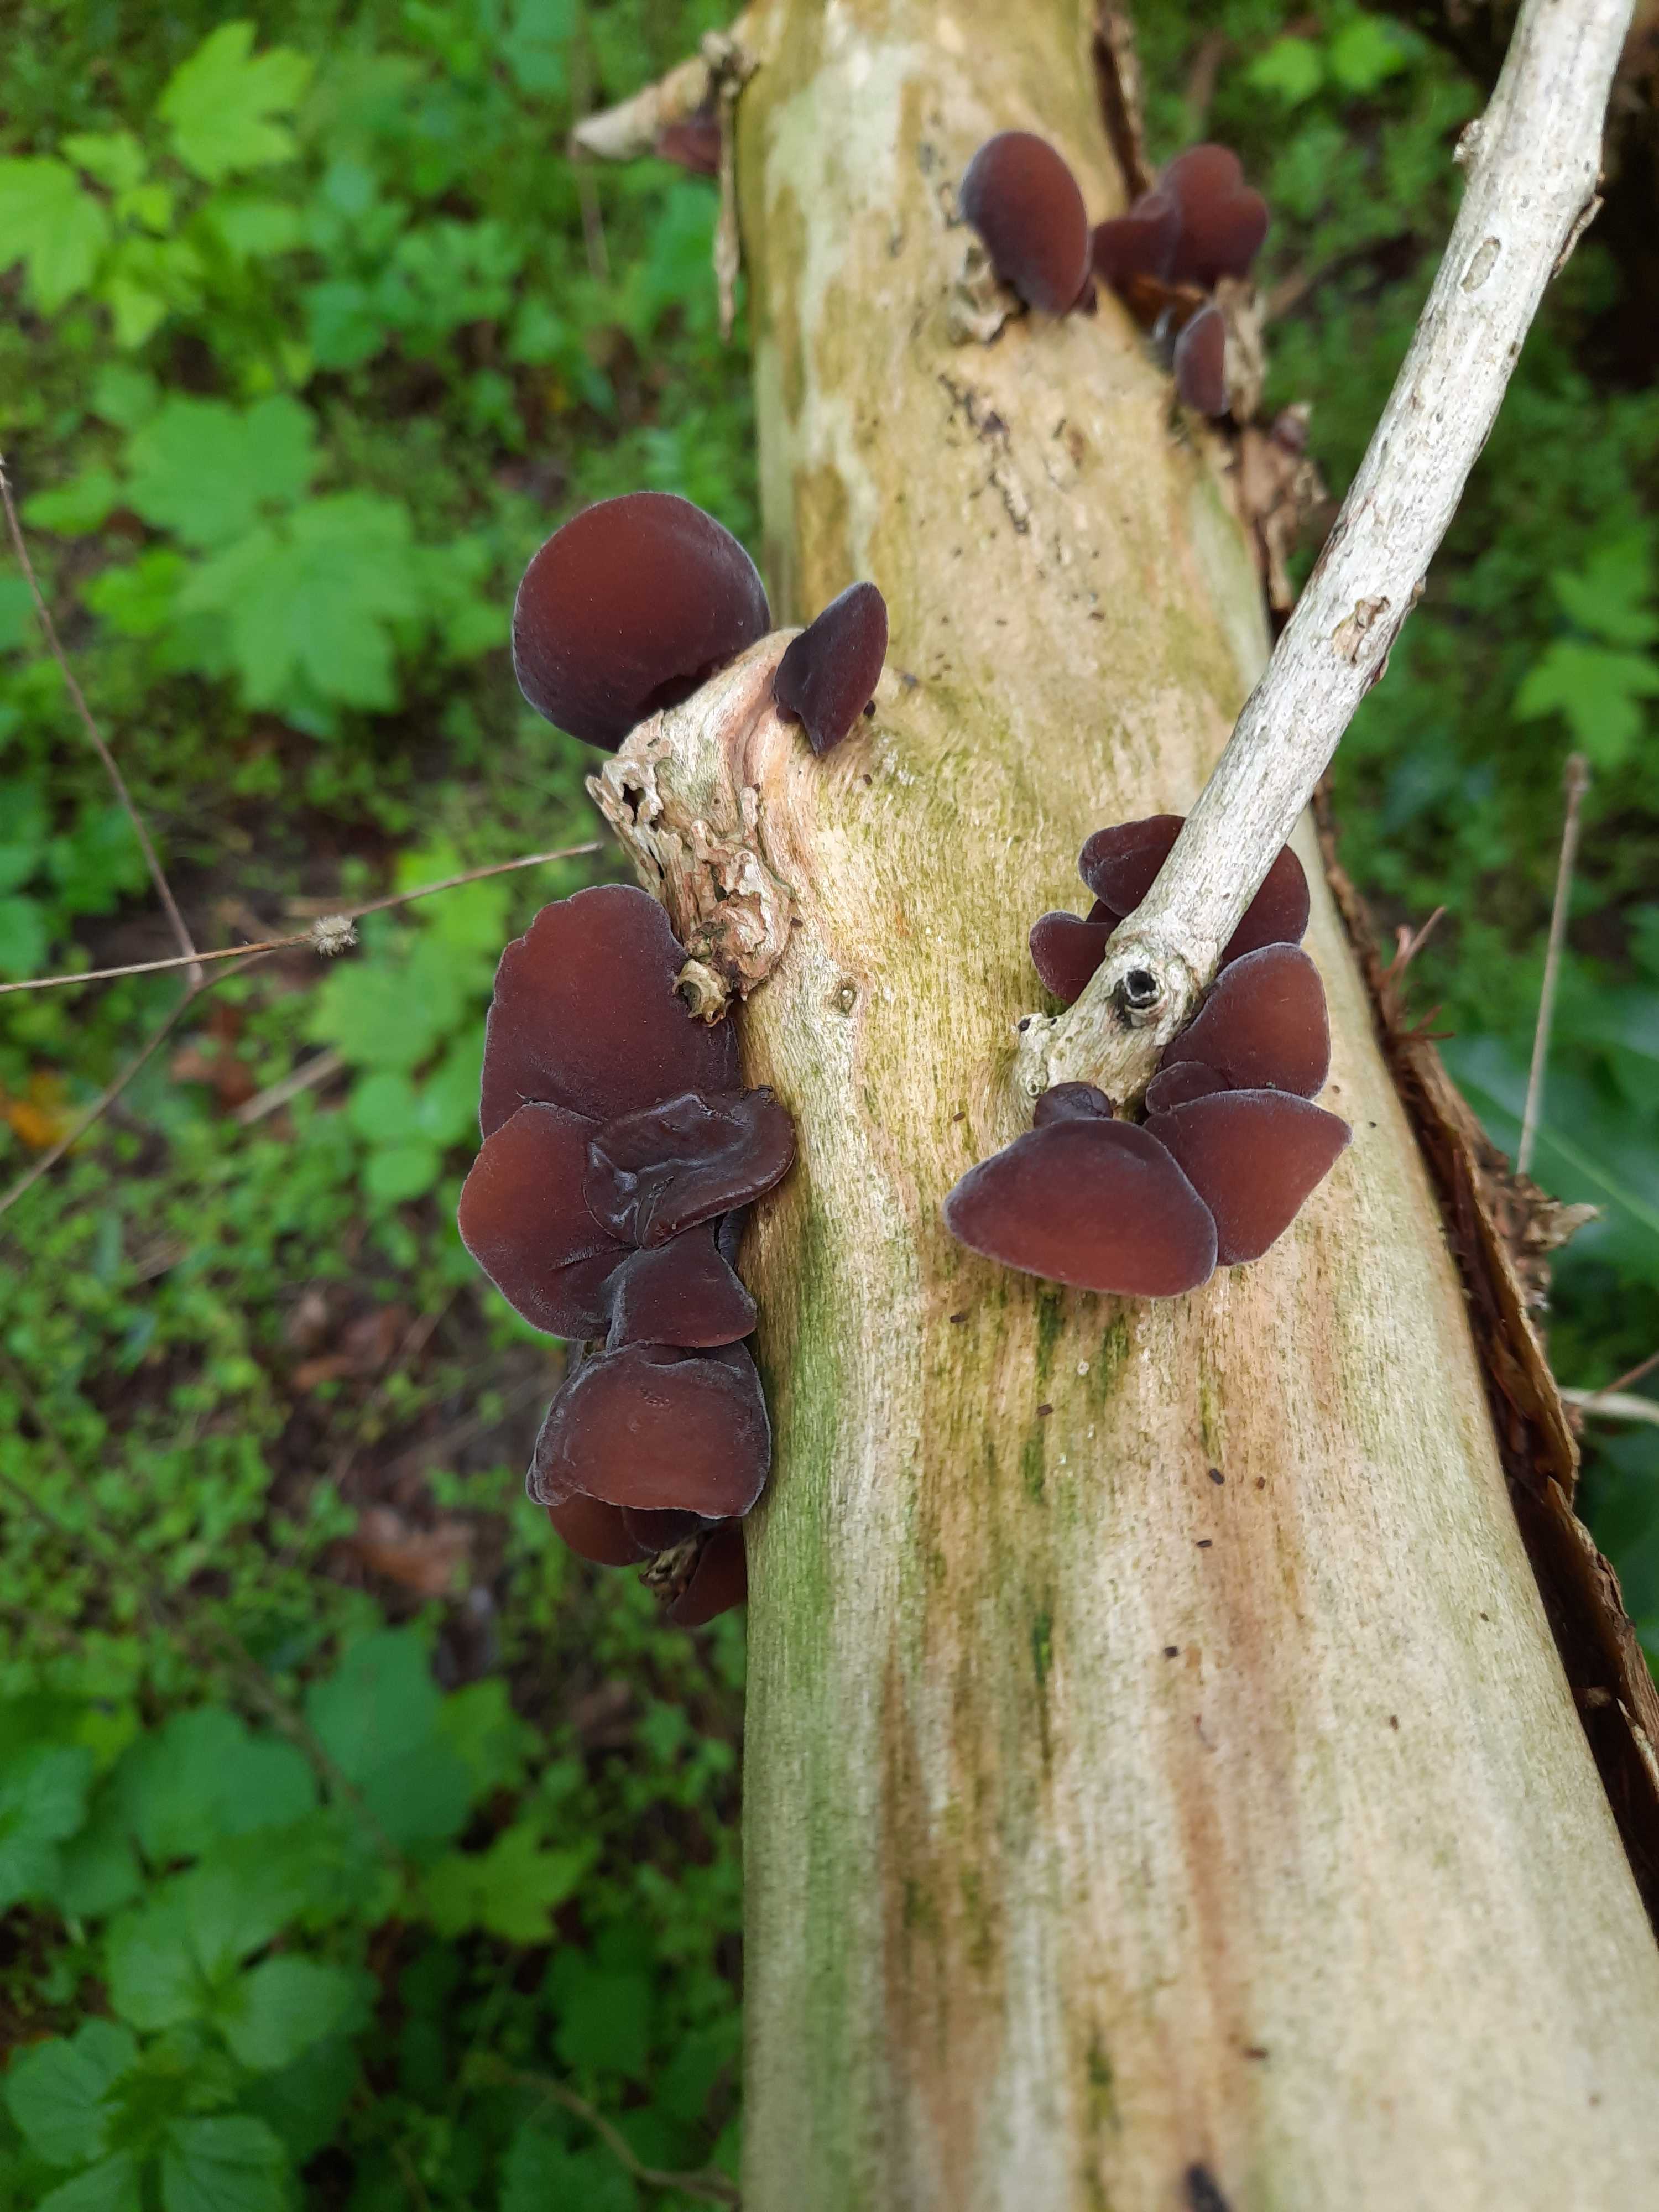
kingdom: Fungi
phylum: Basidiomycota
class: Agaricomycetes
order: Auriculariales
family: Auriculariaceae
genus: Auricularia
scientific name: Auricularia auricula-judae
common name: almindelig judasøre
